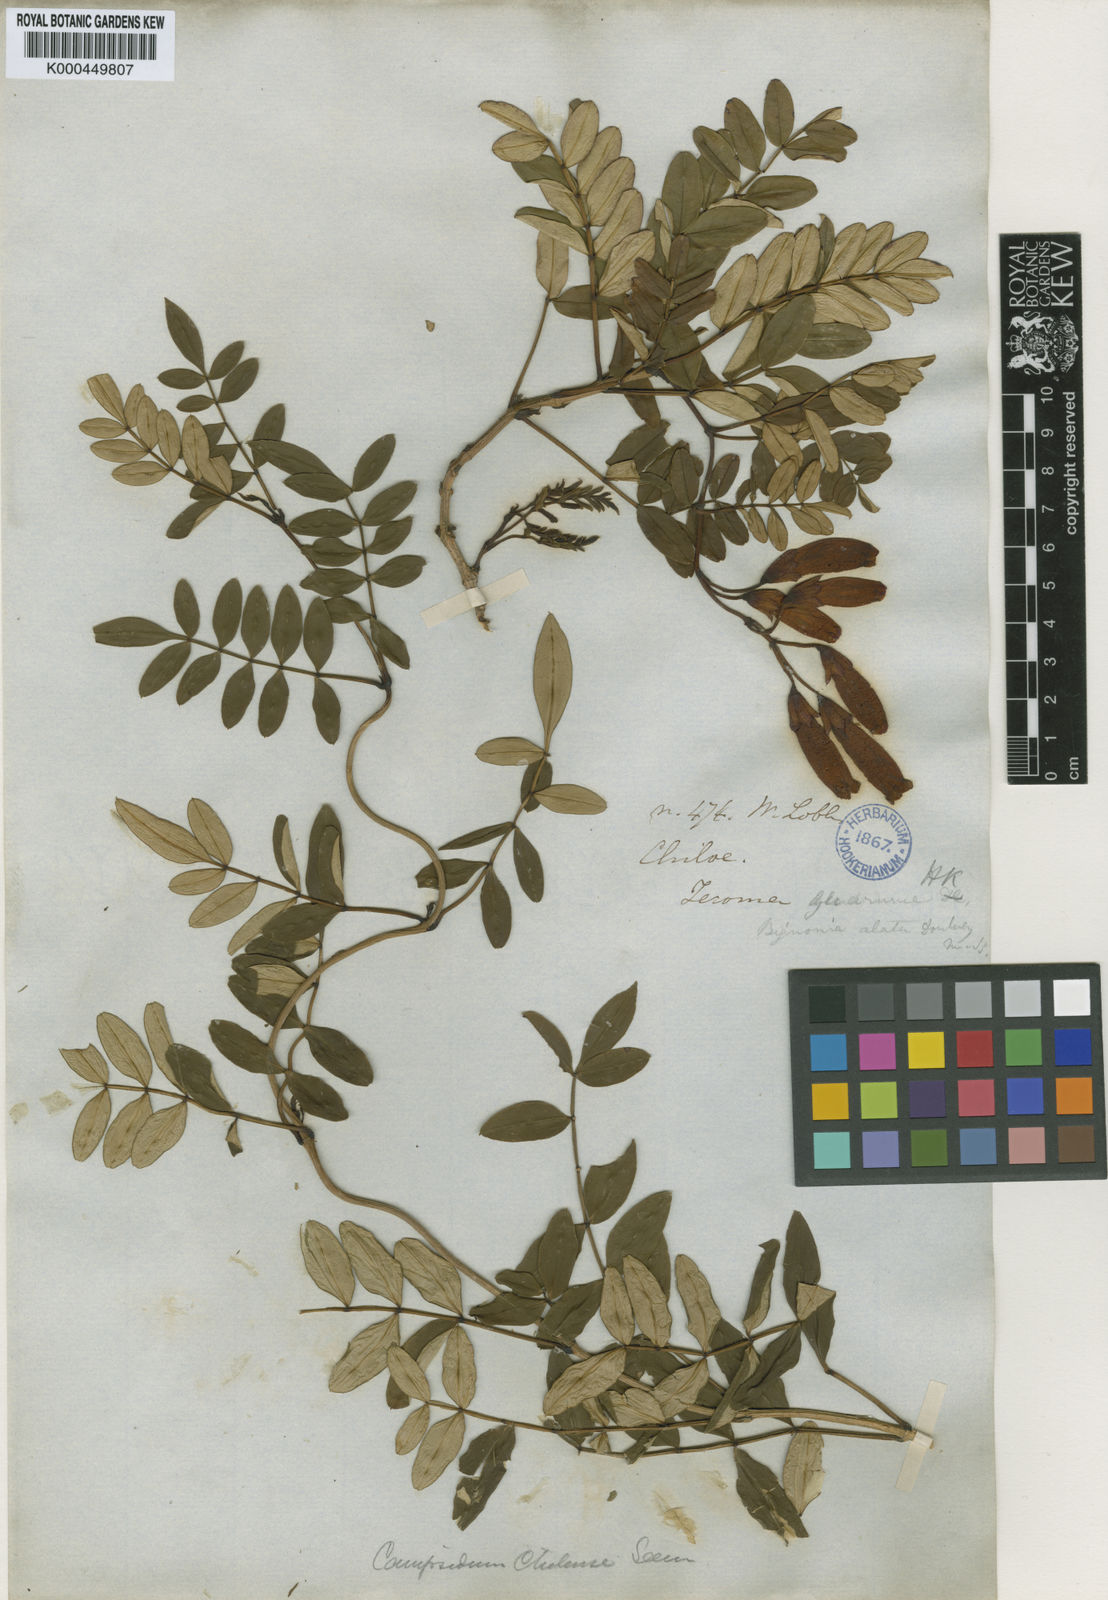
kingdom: Plantae
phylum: Tracheophyta
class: Magnoliopsida
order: Lamiales
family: Bignoniaceae
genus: Campsidium
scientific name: Campsidium valdivianum
